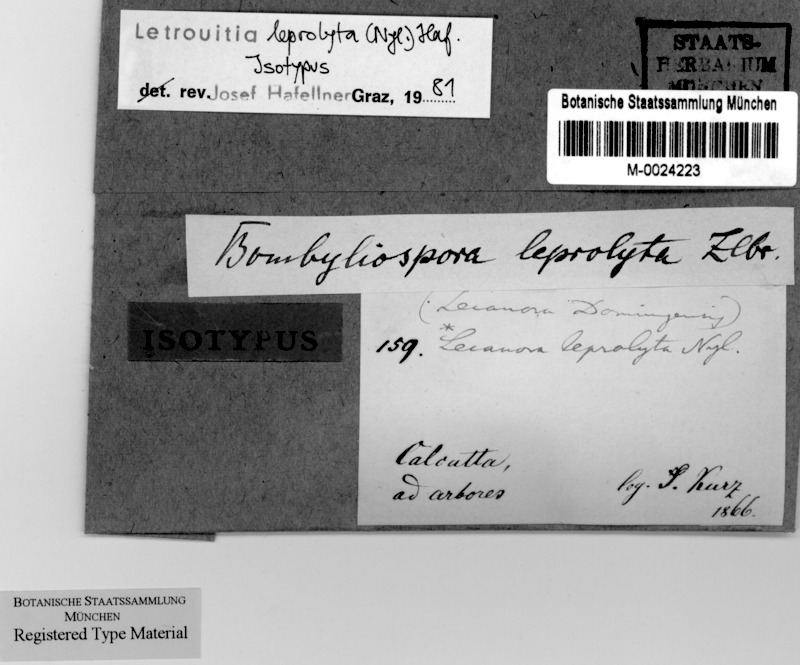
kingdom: Fungi
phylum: Ascomycota
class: Lecanoromycetes
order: Teloschistales
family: Letrouitiaceae
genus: Letrouitia
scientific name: Letrouitia leprolyta
